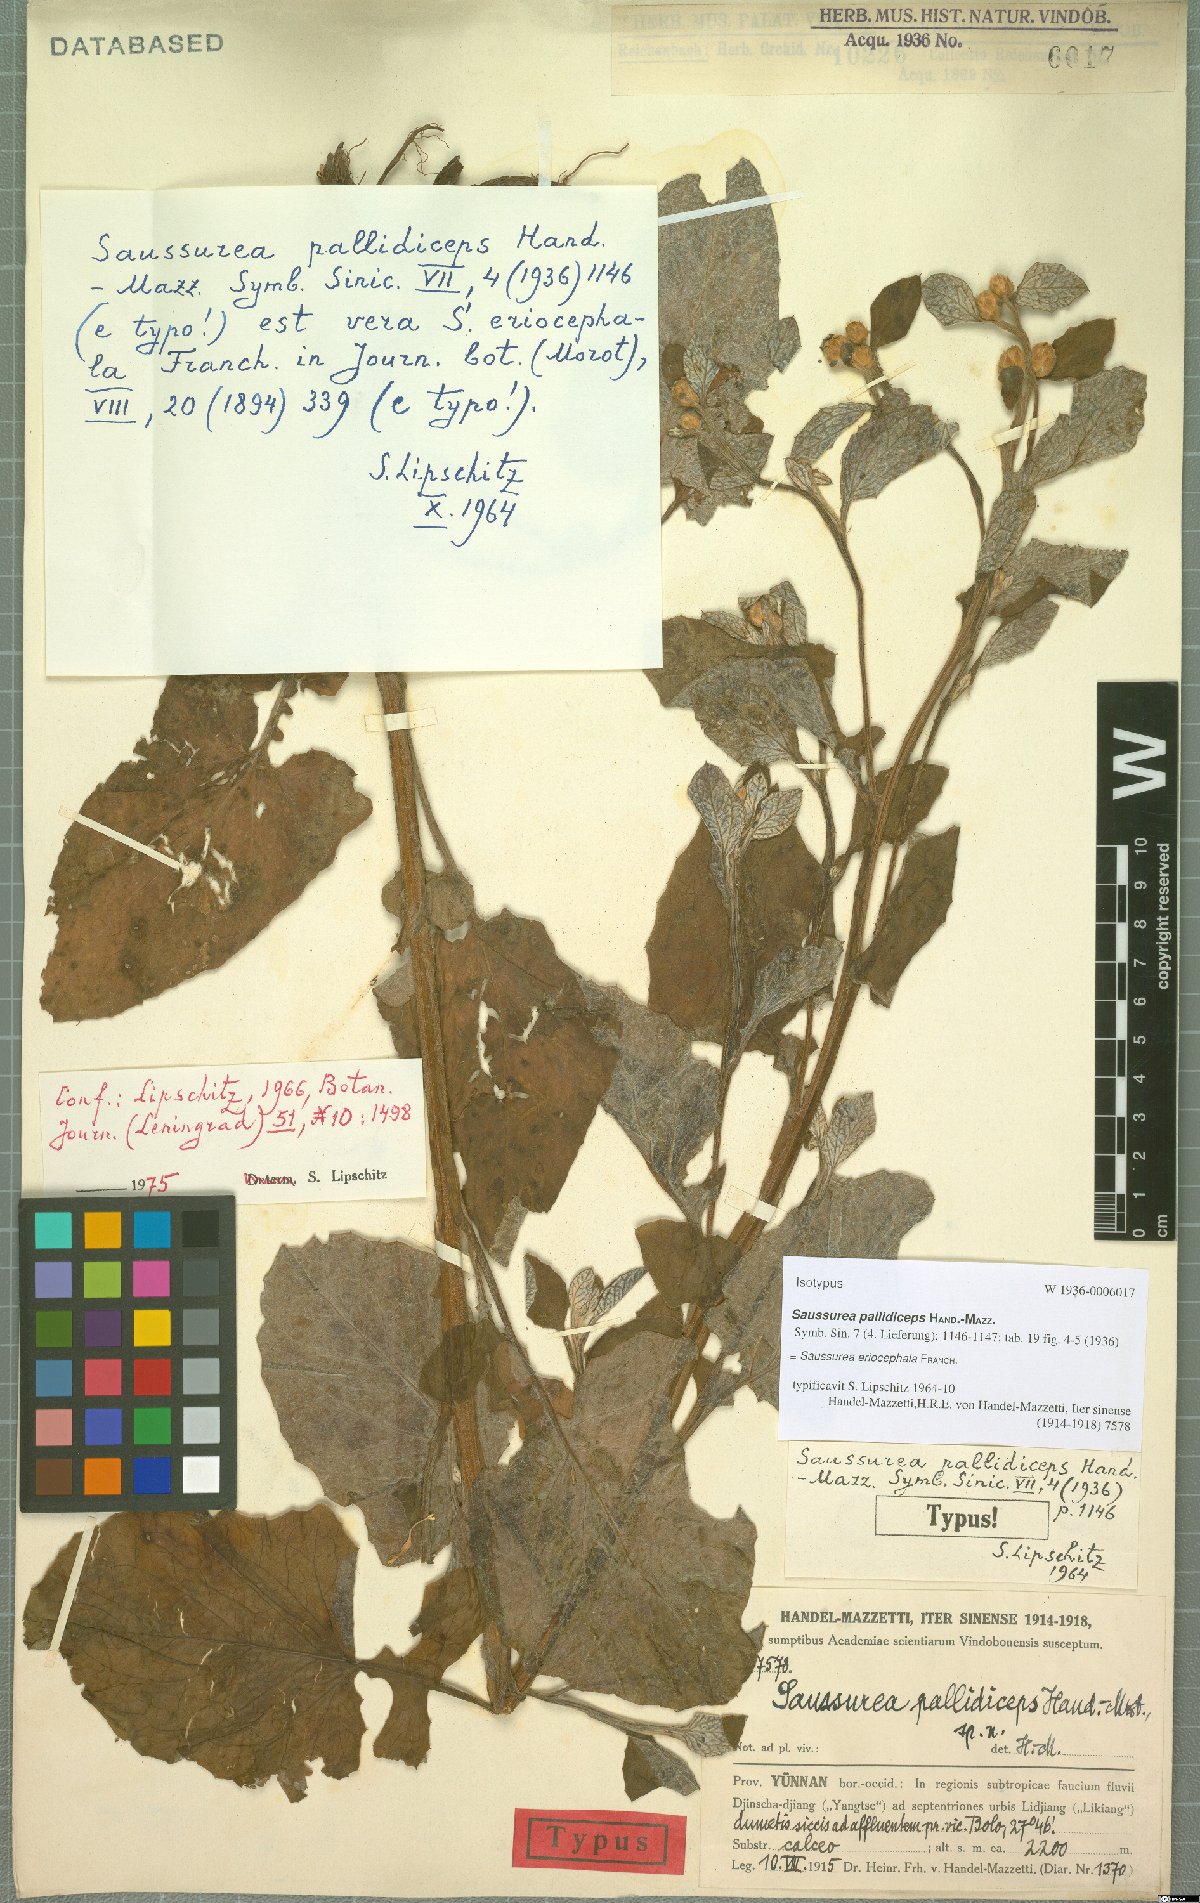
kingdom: Plantae
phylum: Tracheophyta
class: Magnoliopsida
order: Asterales
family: Asteraceae
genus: Saussurea
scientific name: Saussurea eriocephala
